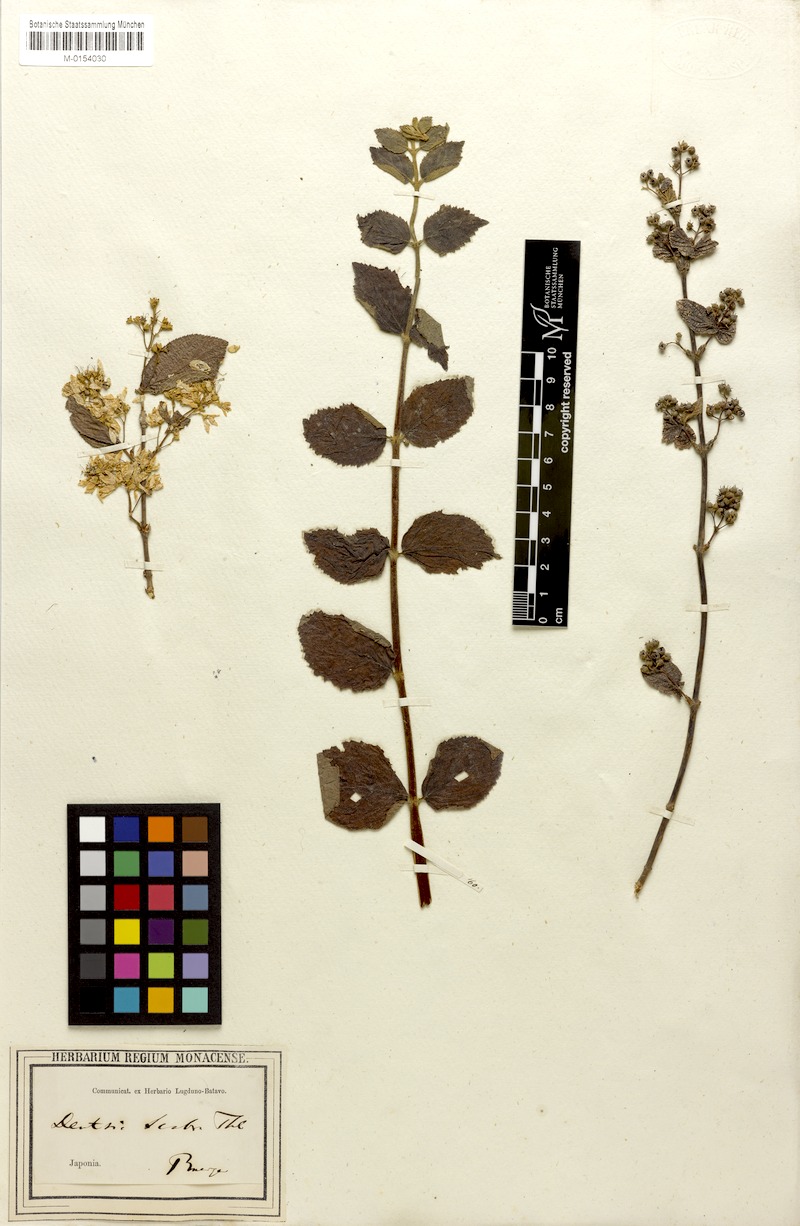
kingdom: Plantae
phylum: Tracheophyta
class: Magnoliopsida
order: Cornales
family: Hydrangeaceae
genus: Deutzia
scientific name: Deutzia crenata
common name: Deutzia
